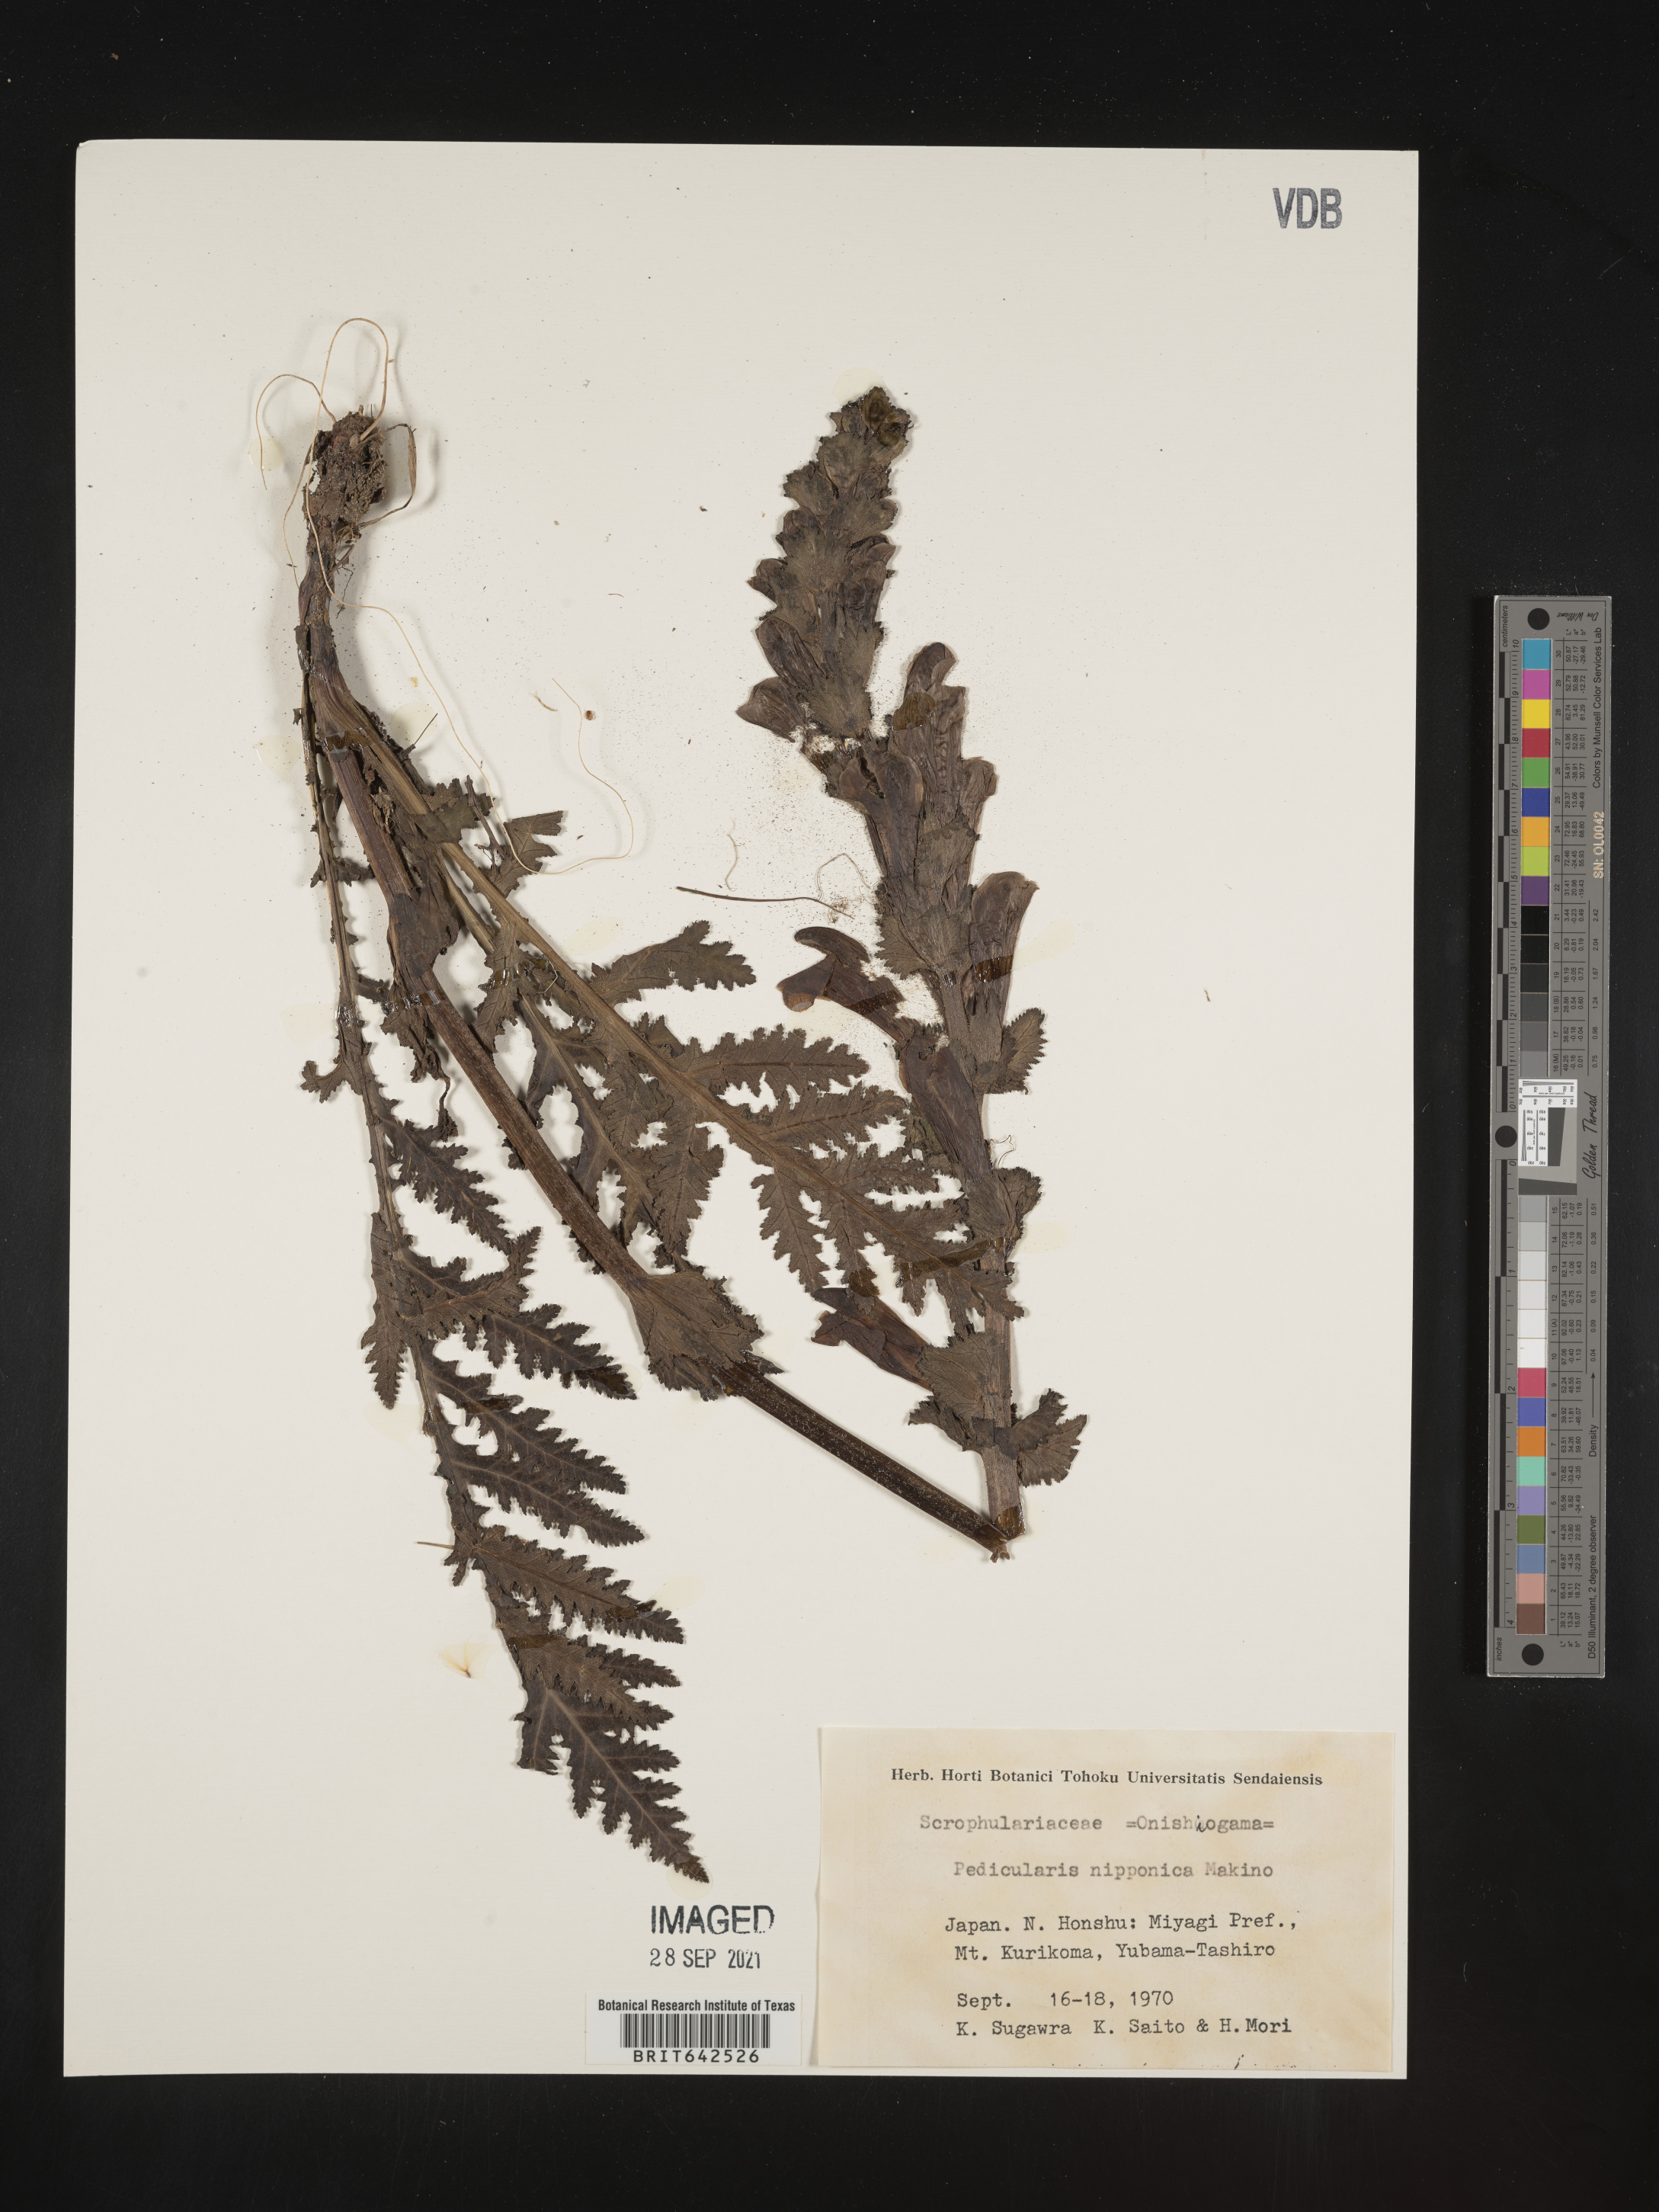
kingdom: Plantae
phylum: Tracheophyta
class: Magnoliopsida
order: Lamiales
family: Orobanchaceae
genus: Pedicularis
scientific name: Pedicularis
